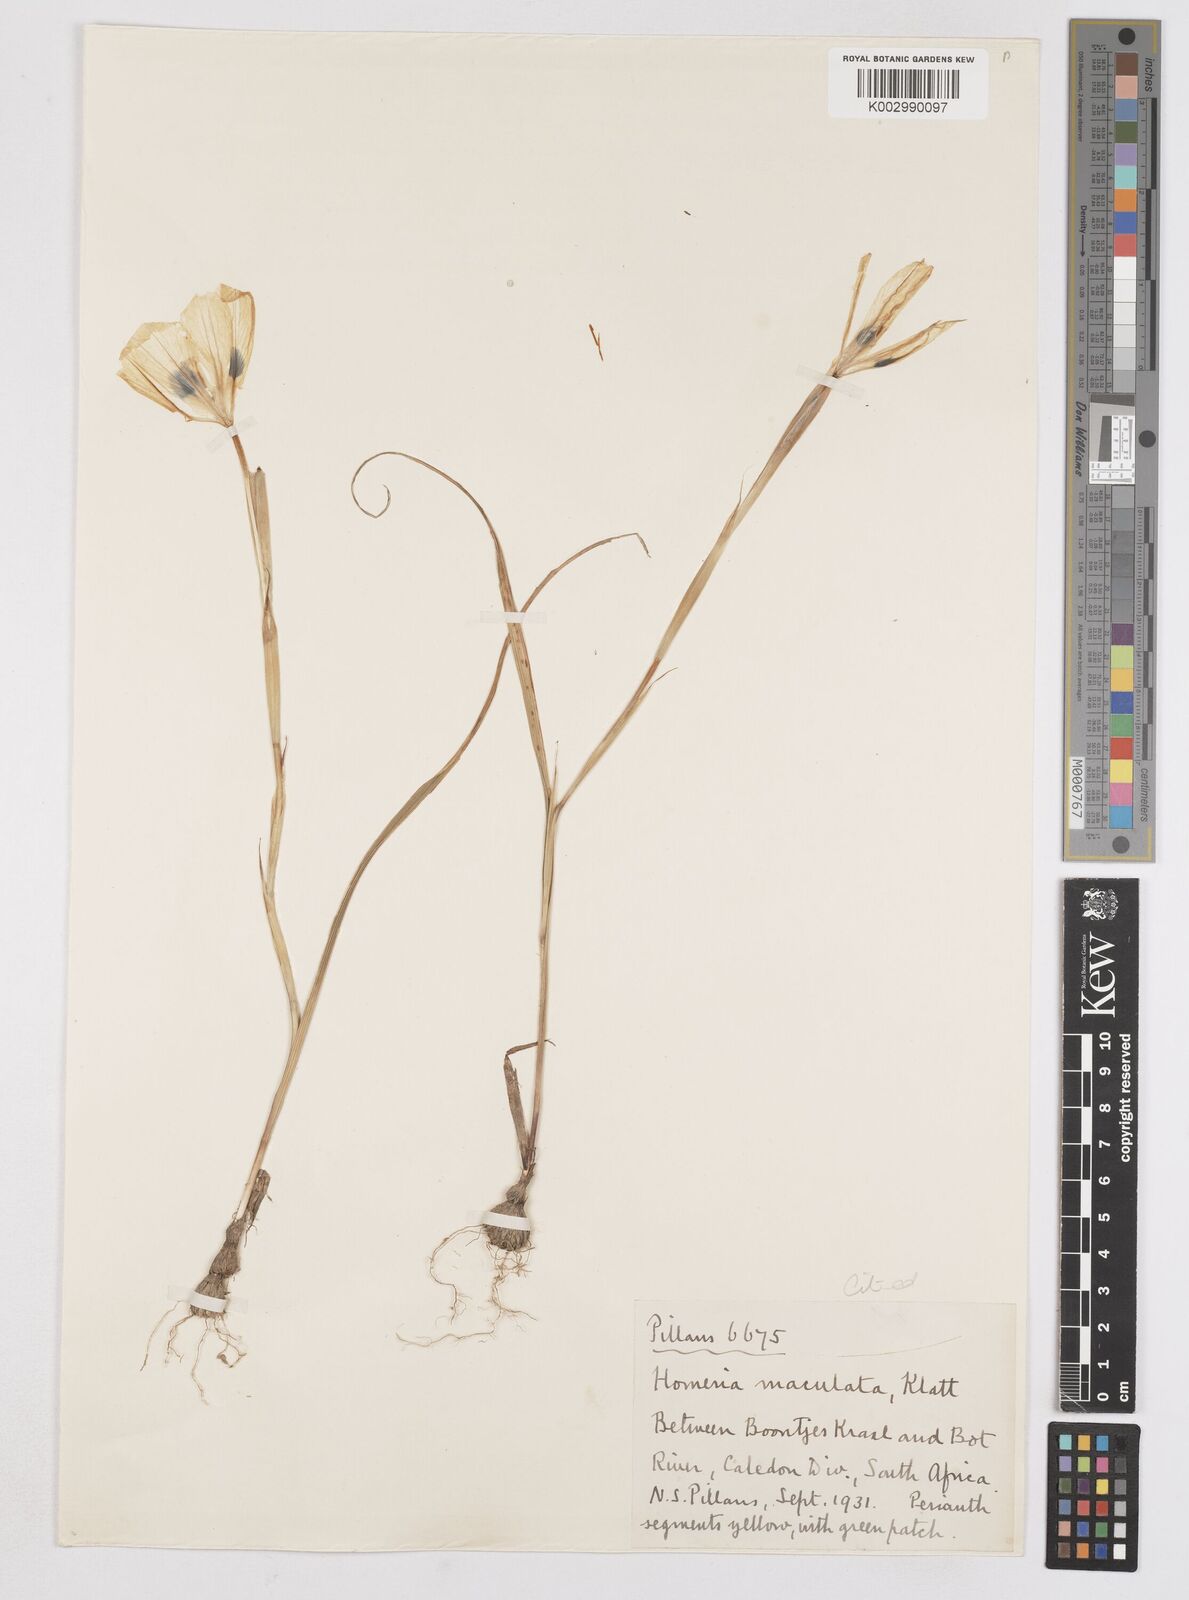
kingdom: Plantae
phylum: Tracheophyta
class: Liliopsida
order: Asparagales
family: Iridaceae
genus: Moraea
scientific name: Moraea comptonii
